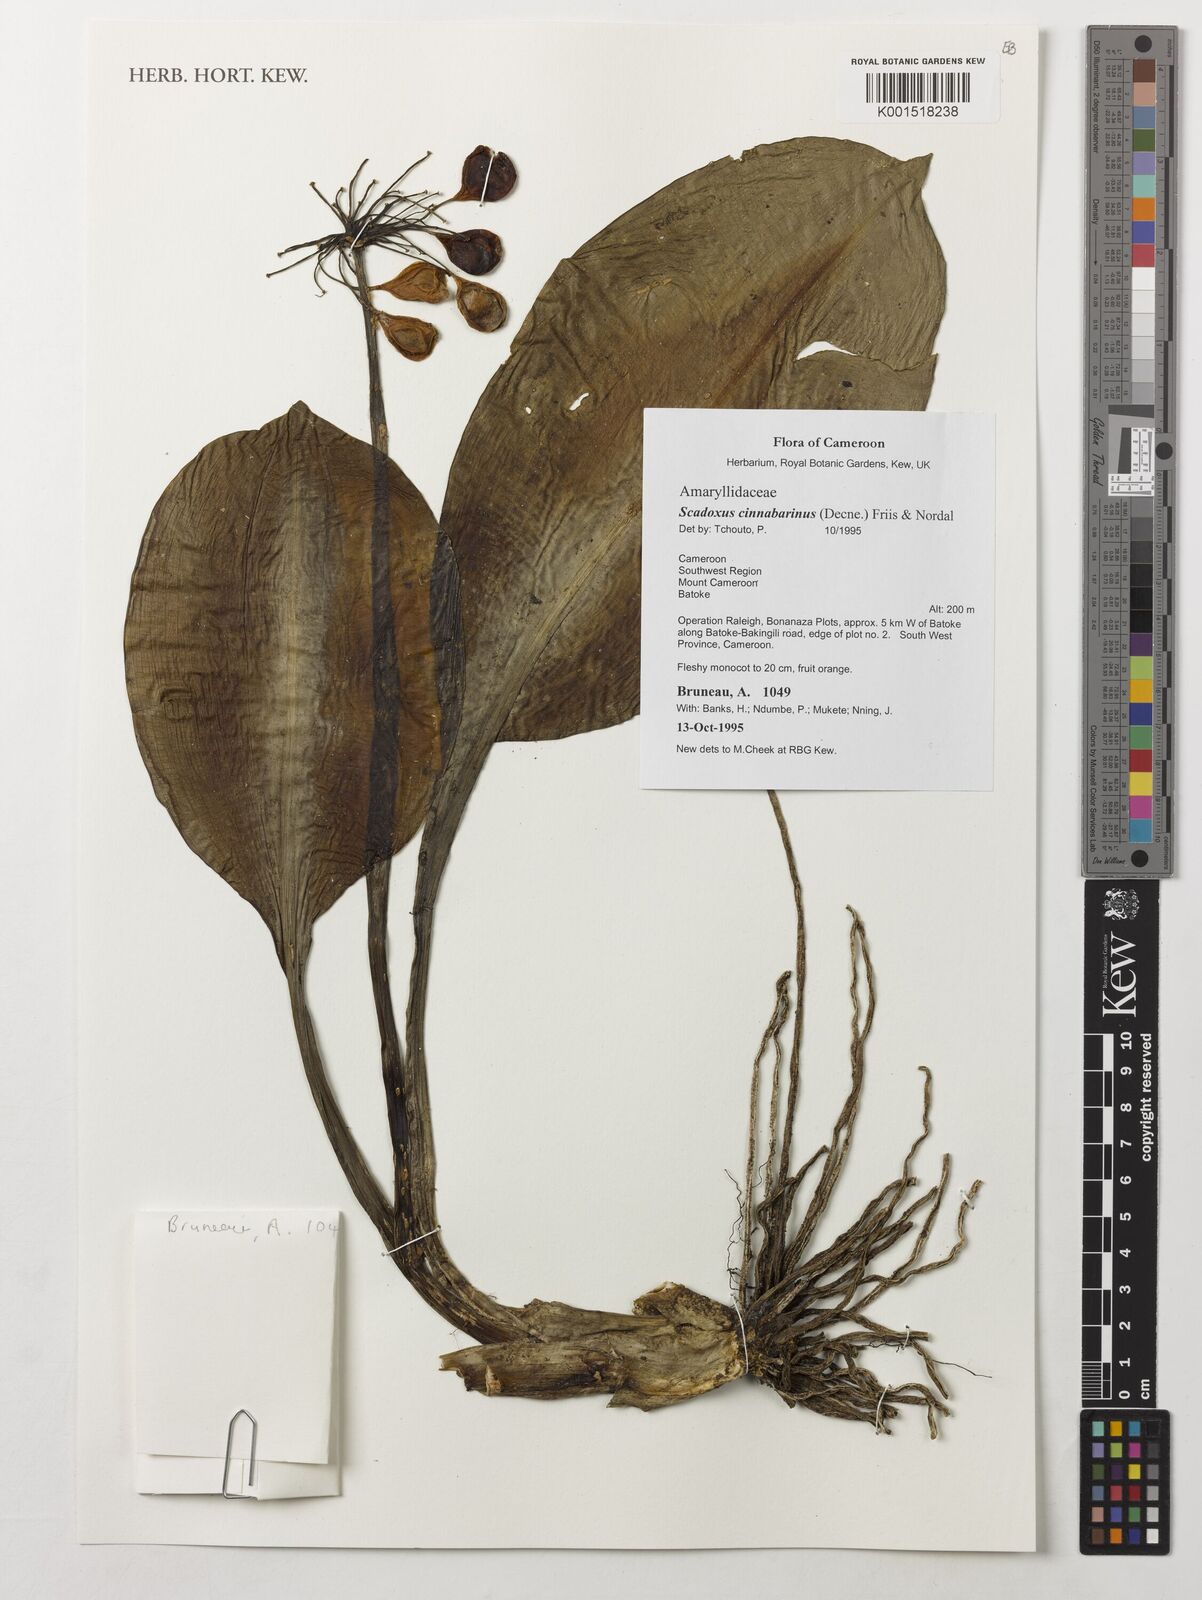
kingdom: Plantae
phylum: Tracheophyta
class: Liliopsida
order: Asparagales
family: Amaryllidaceae
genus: Scadoxus
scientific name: Scadoxus cinnabarinus
